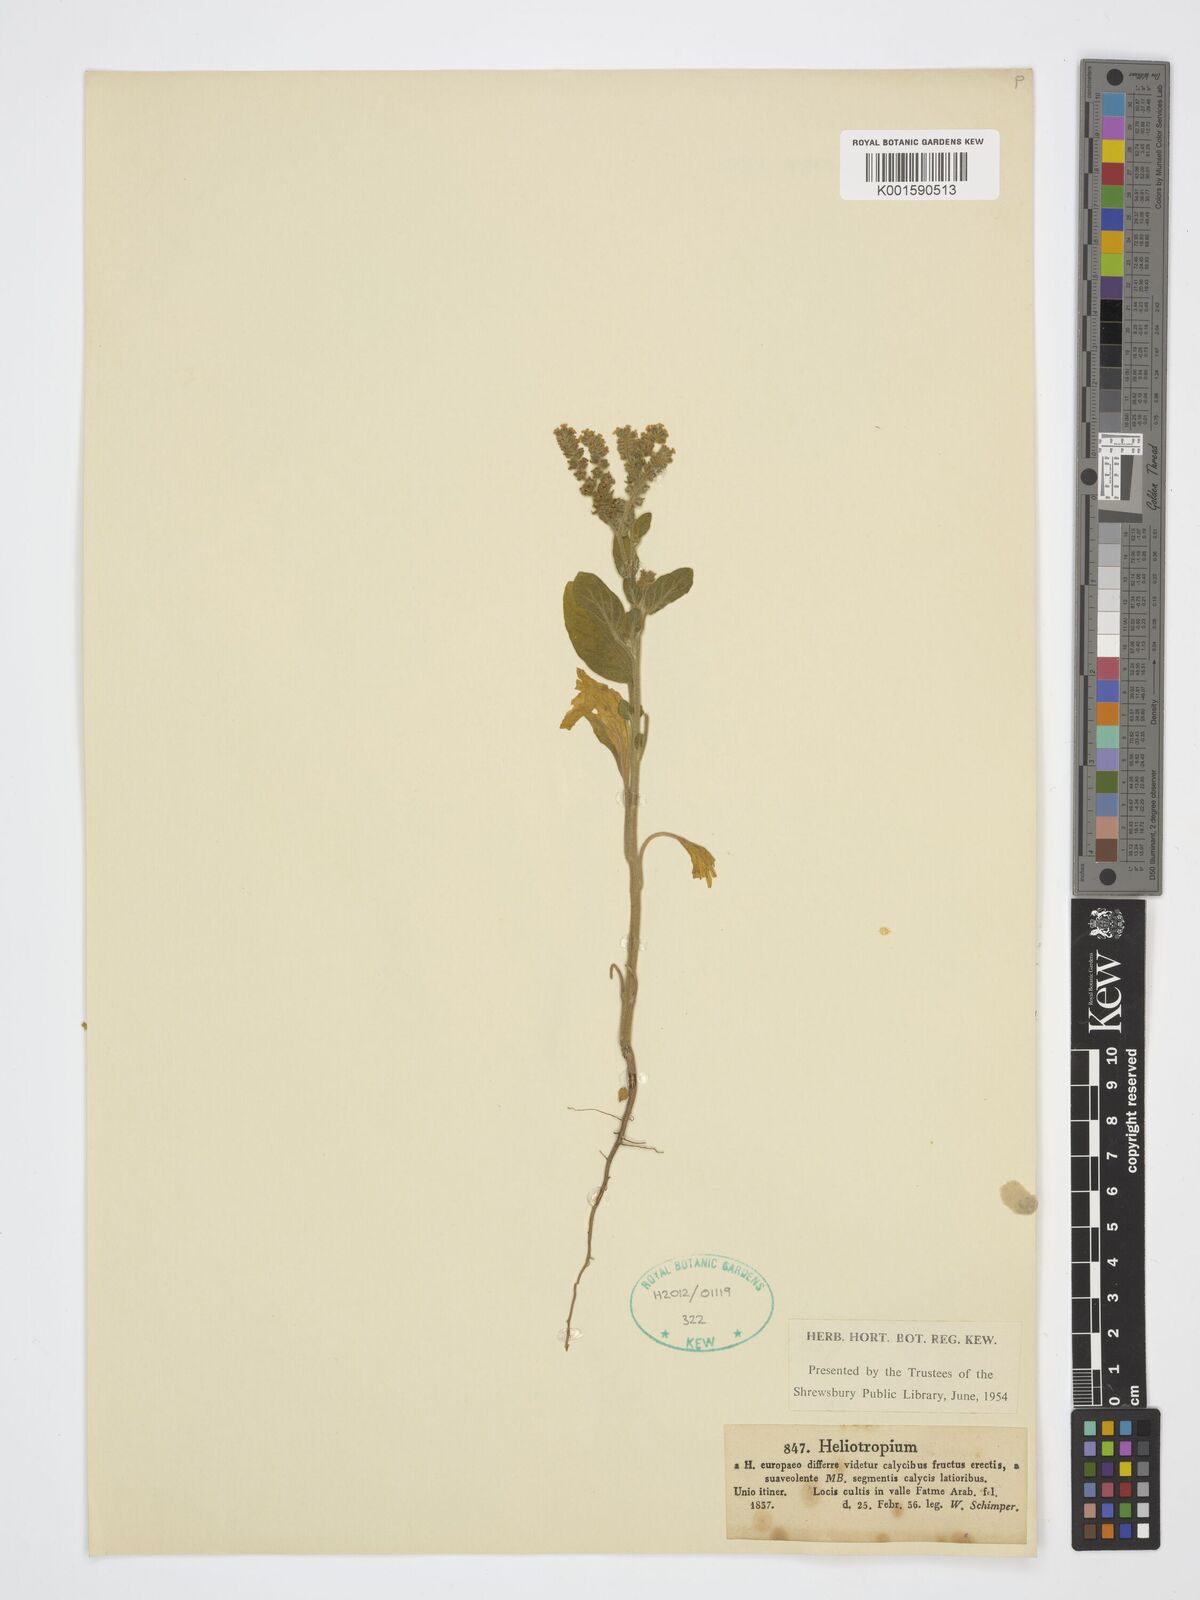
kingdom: Plantae
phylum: Tracheophyta
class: Magnoliopsida
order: Boraginales
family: Heliotropiaceae
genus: Heliotropium
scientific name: Heliotropium
